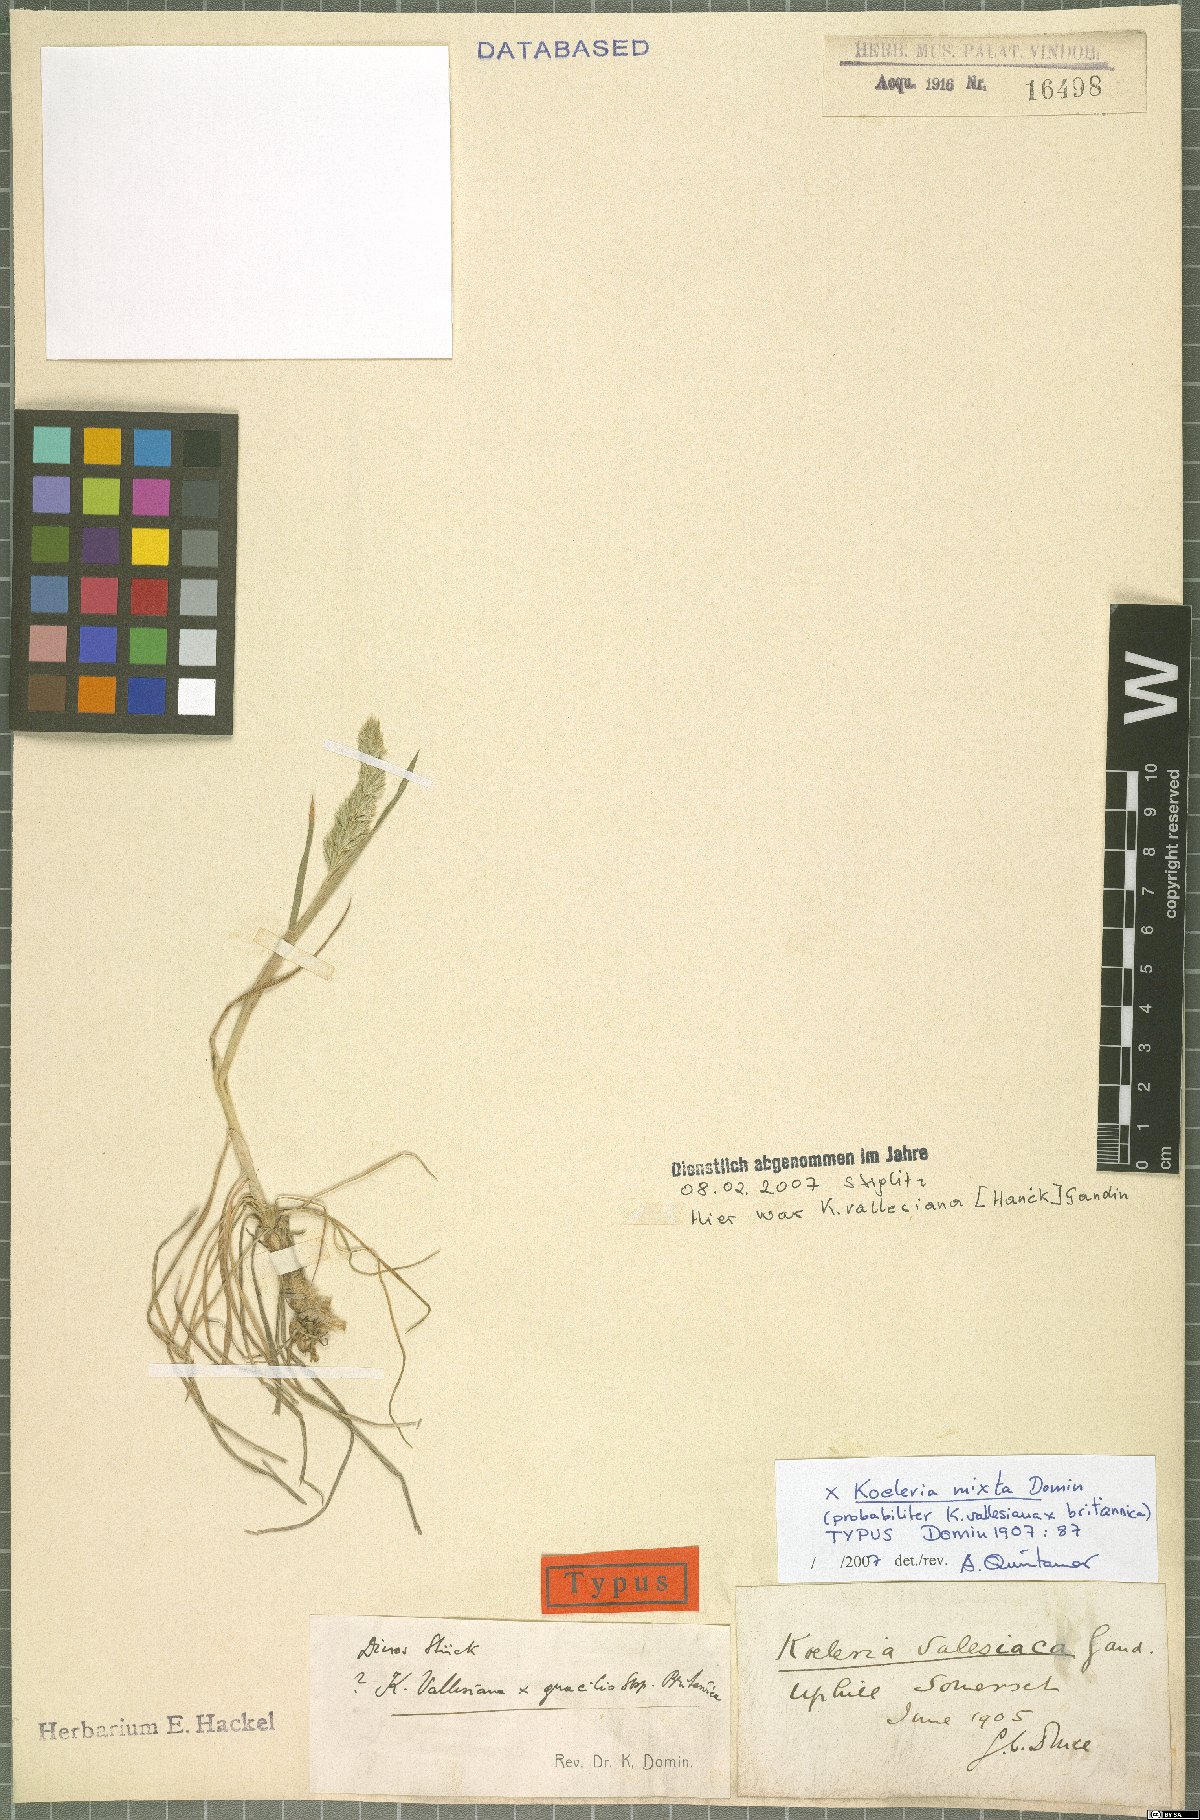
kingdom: Plantae
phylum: Tracheophyta
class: Liliopsida
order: Poales
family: Poaceae
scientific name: Poaceae
